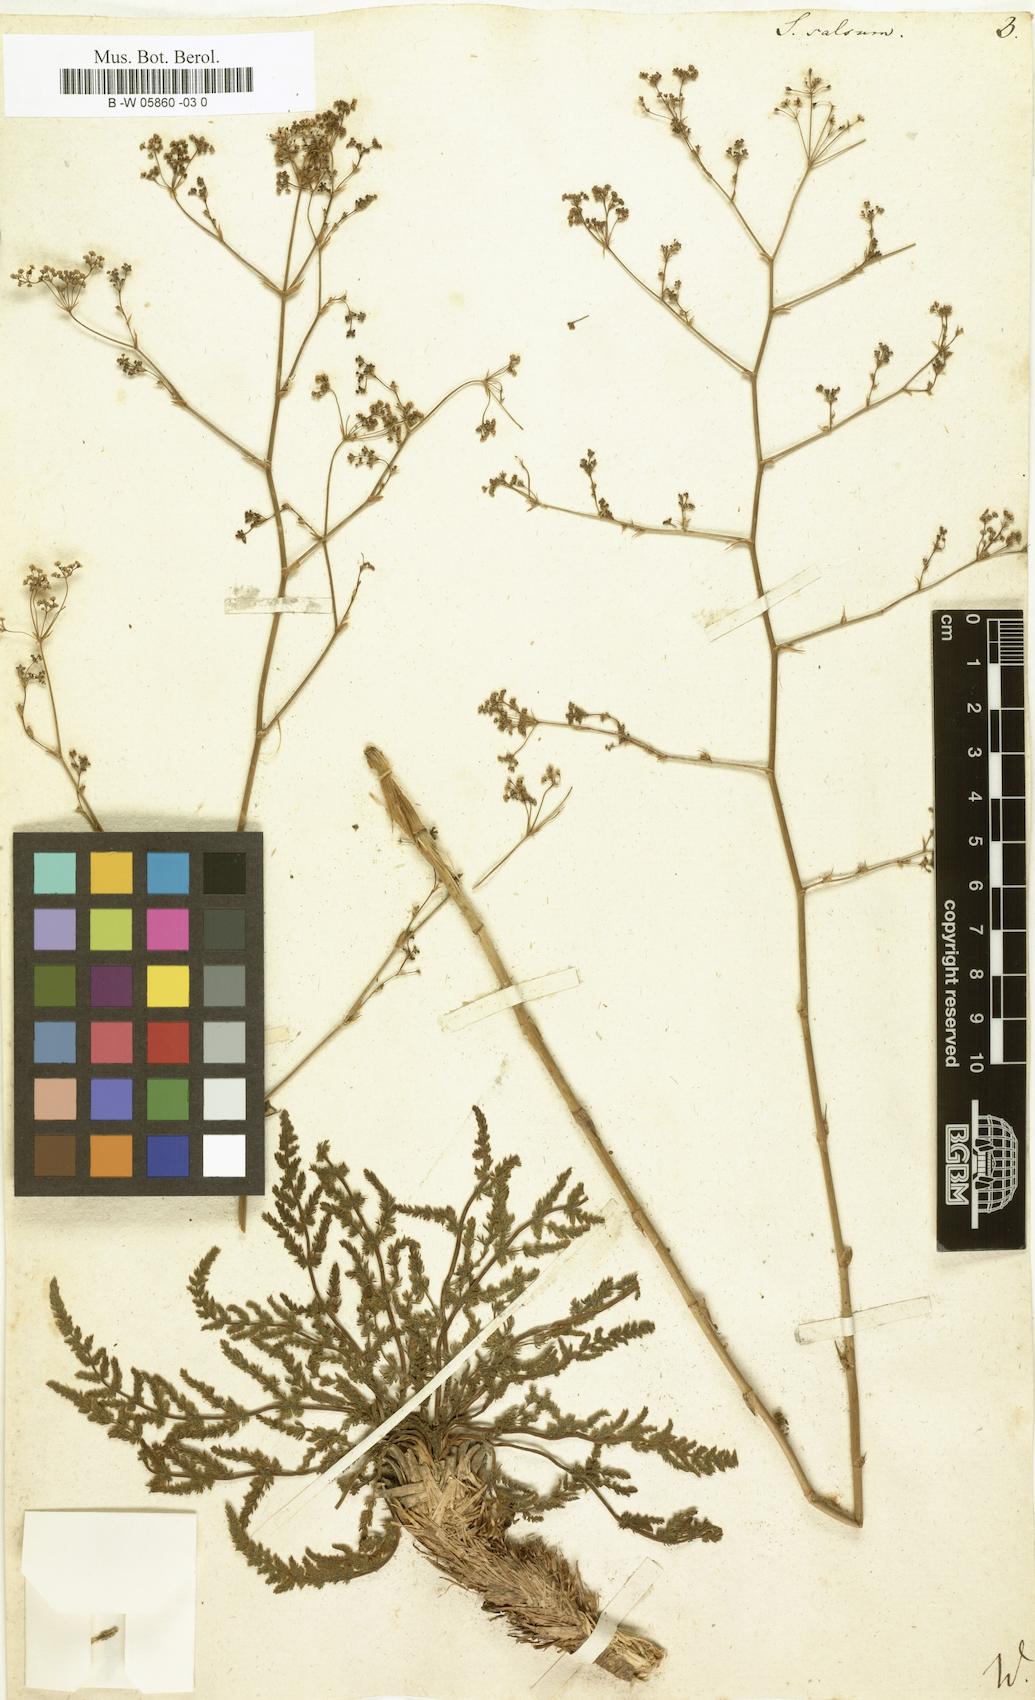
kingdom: Plantae
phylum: Tracheophyta
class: Magnoliopsida
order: Apiales
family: Apiaceae
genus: Palimbia
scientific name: Palimbia rediviva
